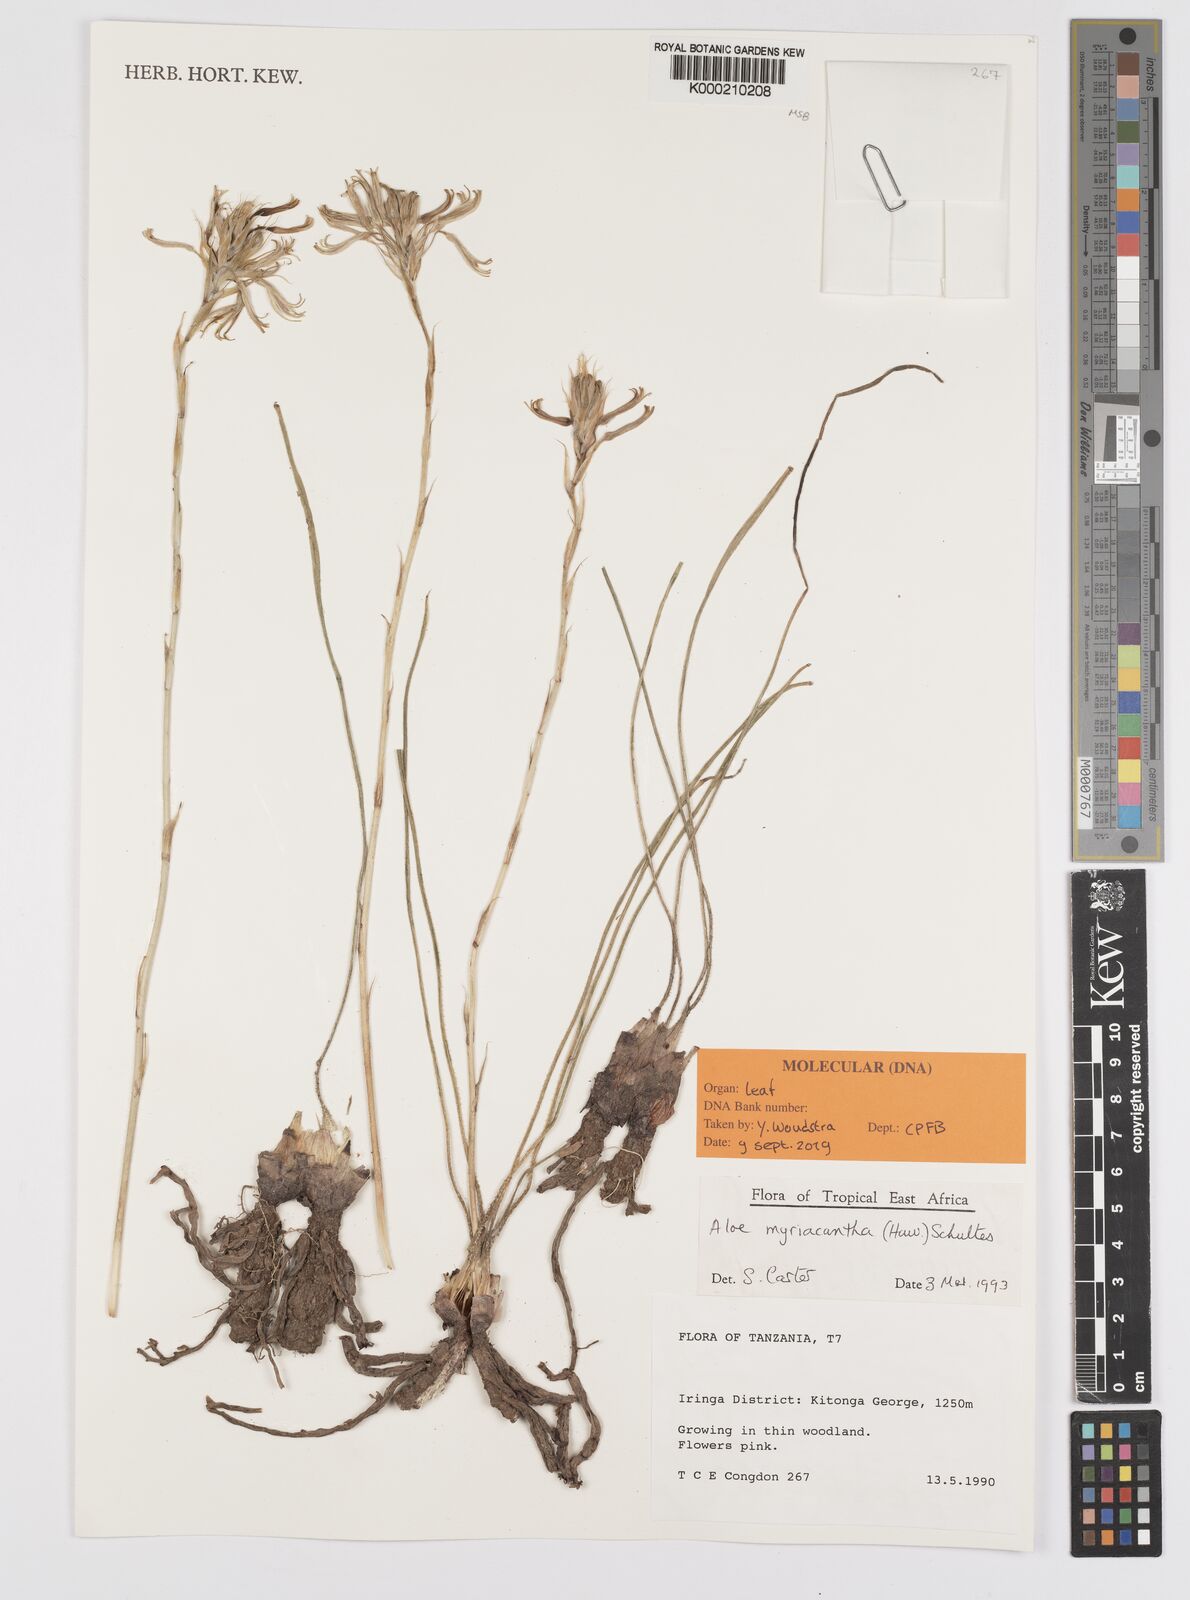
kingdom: Plantae
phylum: Tracheophyta
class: Liliopsida
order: Asparagales
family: Asphodelaceae
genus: Aloe
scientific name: Aloe
